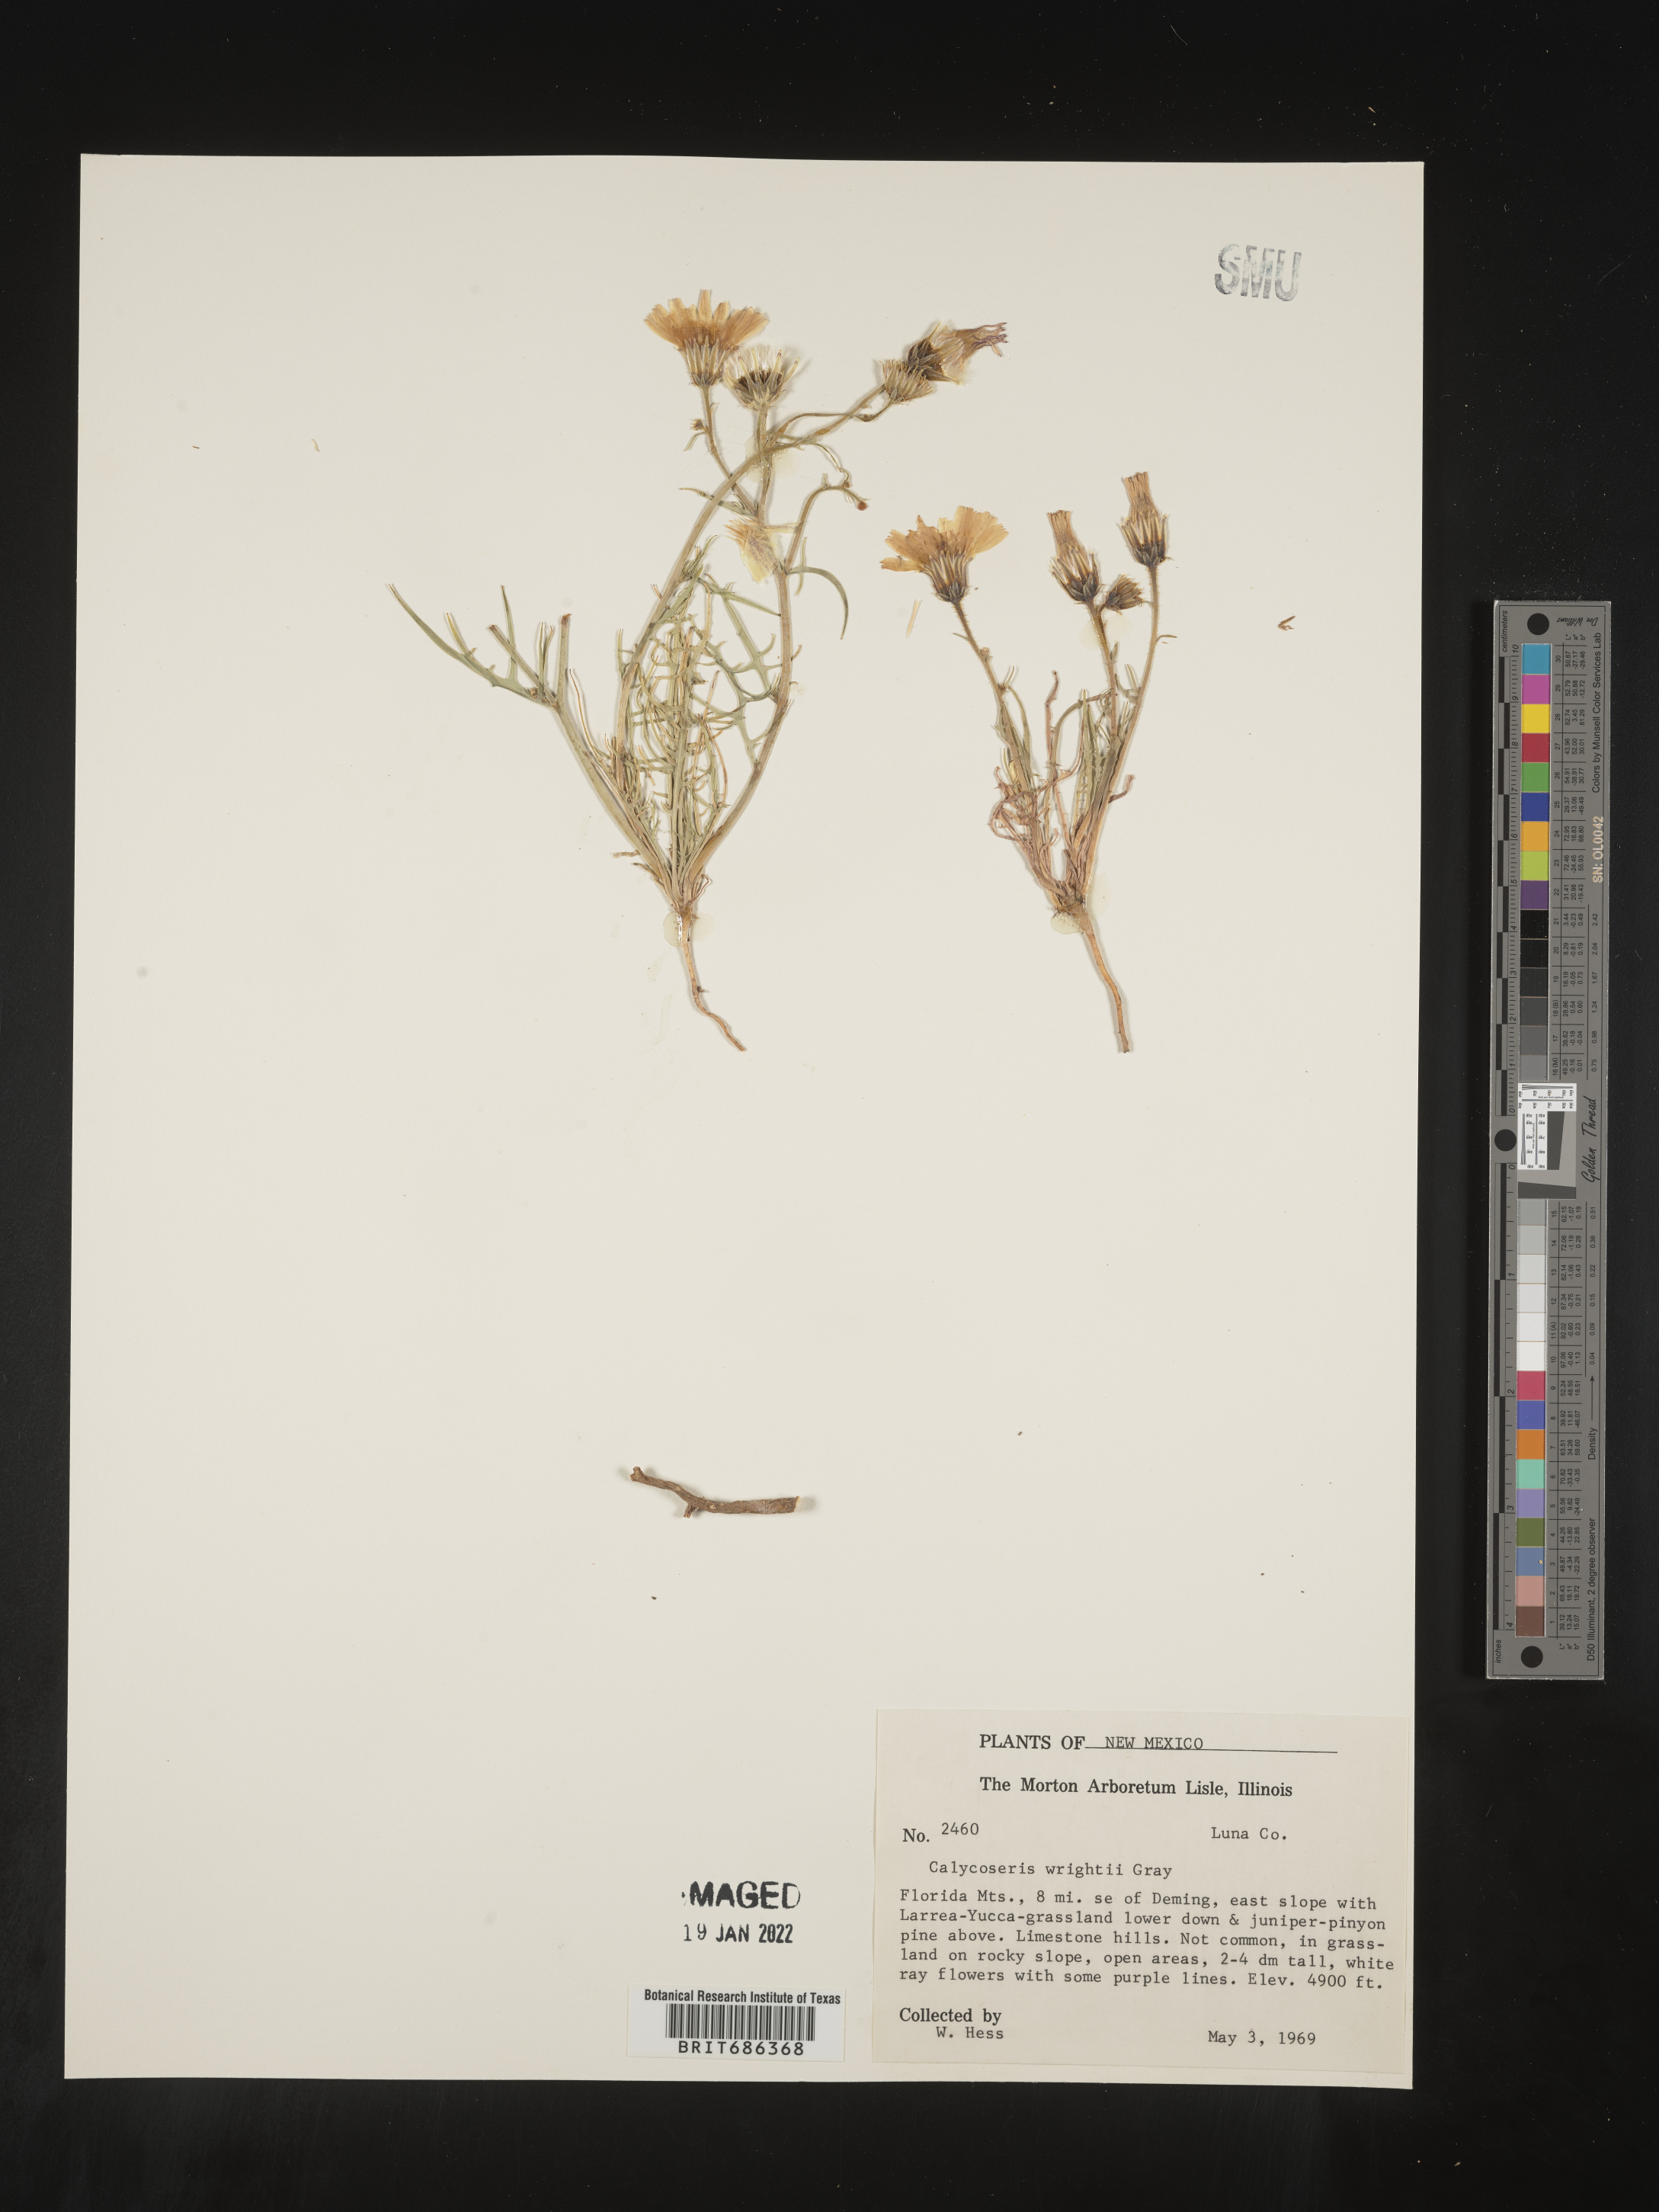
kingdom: Plantae
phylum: Tracheophyta
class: Magnoliopsida
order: Asterales
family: Asteraceae
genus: Calycoseris
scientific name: Calycoseris
